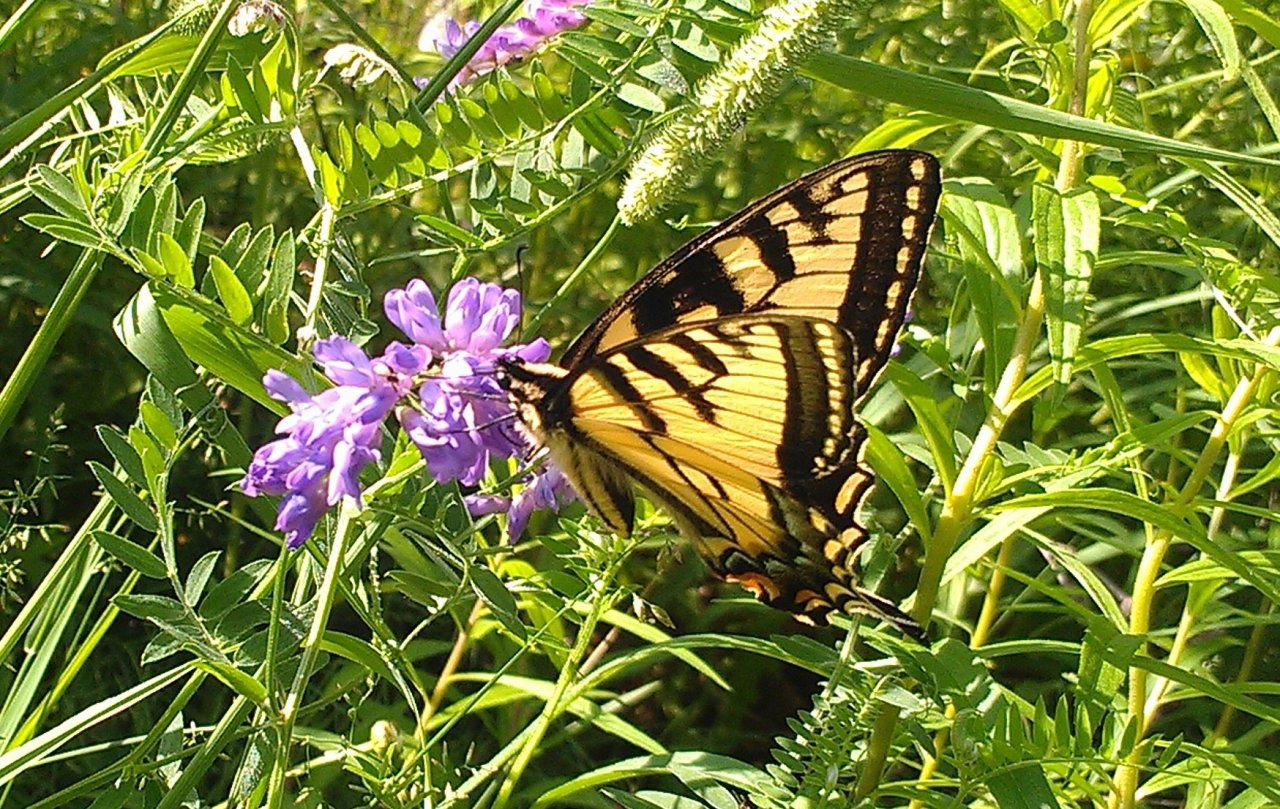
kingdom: Animalia
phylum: Arthropoda
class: Insecta
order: Lepidoptera
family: Papilionidae
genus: Pterourus
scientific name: Pterourus canadensis
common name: Canadian Tiger Swallowtail
